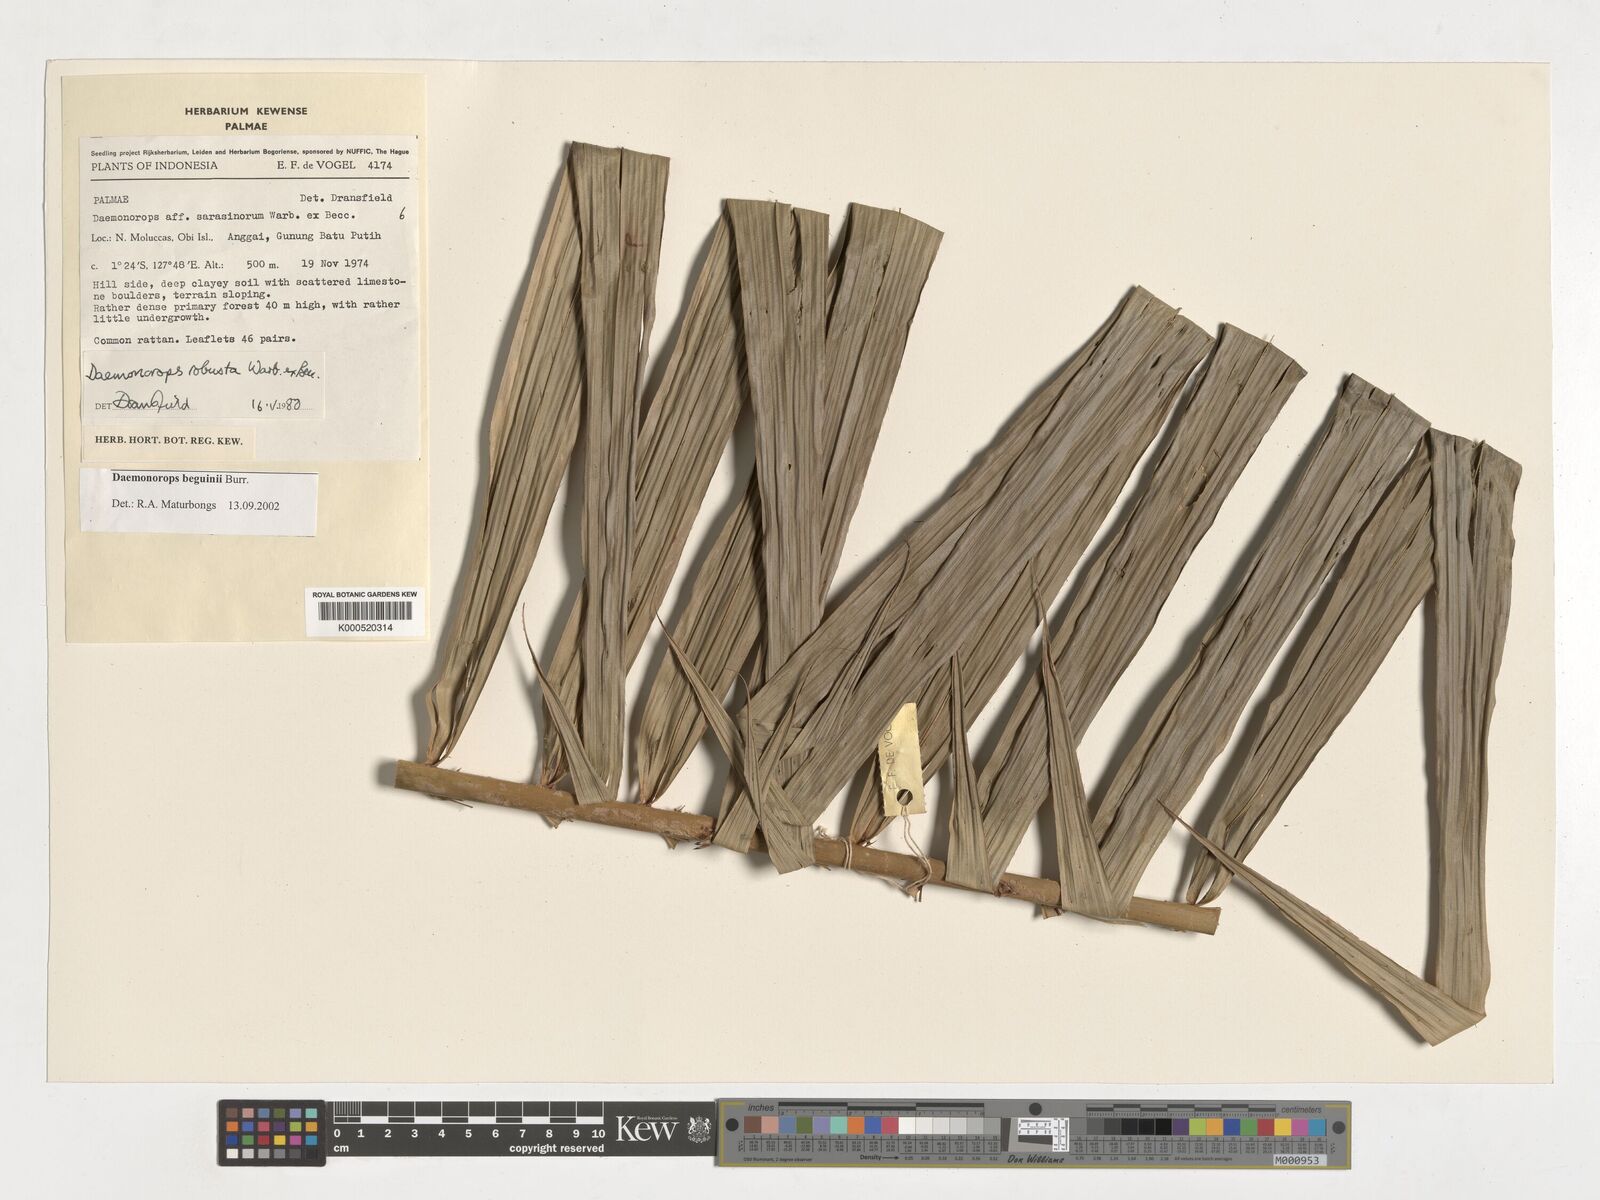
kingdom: Plantae
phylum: Tracheophyta
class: Liliopsida
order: Arecales
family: Arecaceae
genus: Calamus
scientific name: Calamus calapparius
